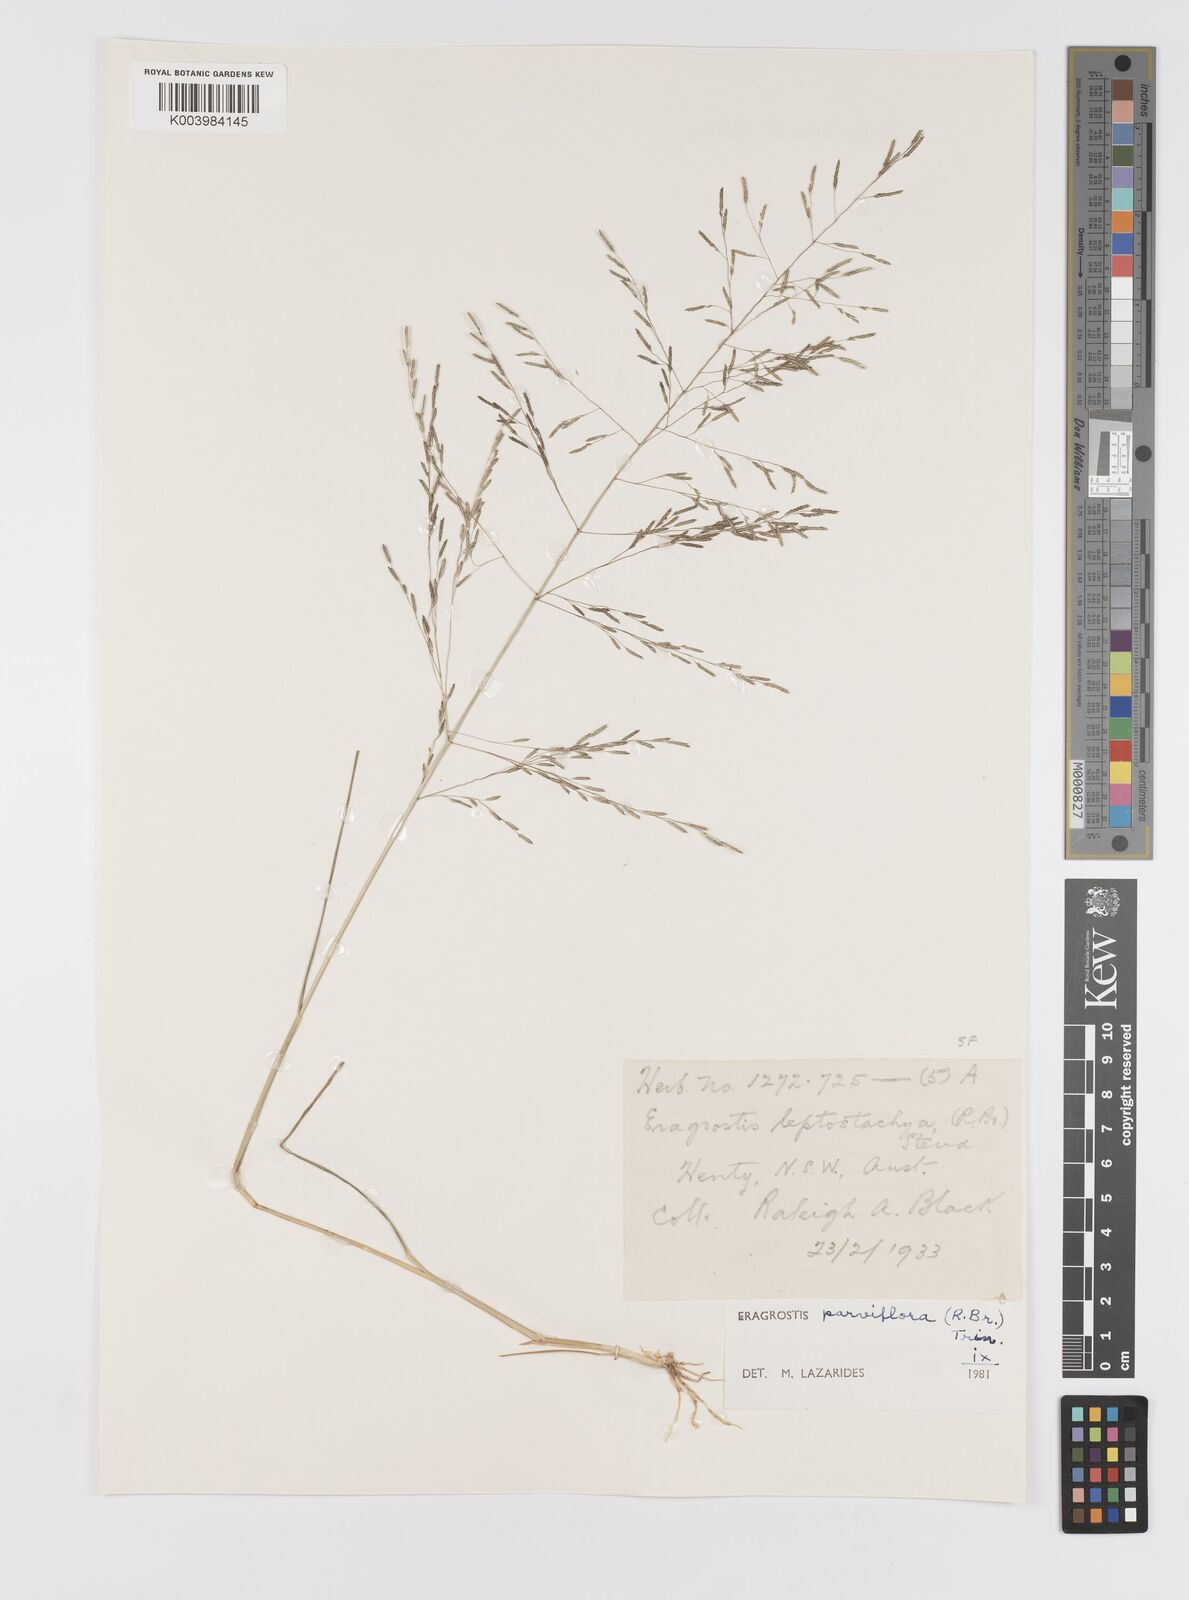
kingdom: Plantae
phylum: Tracheophyta
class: Liliopsida
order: Poales
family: Poaceae
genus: Eragrostis
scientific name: Eragrostis parviflora
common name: Weeping love-grass
